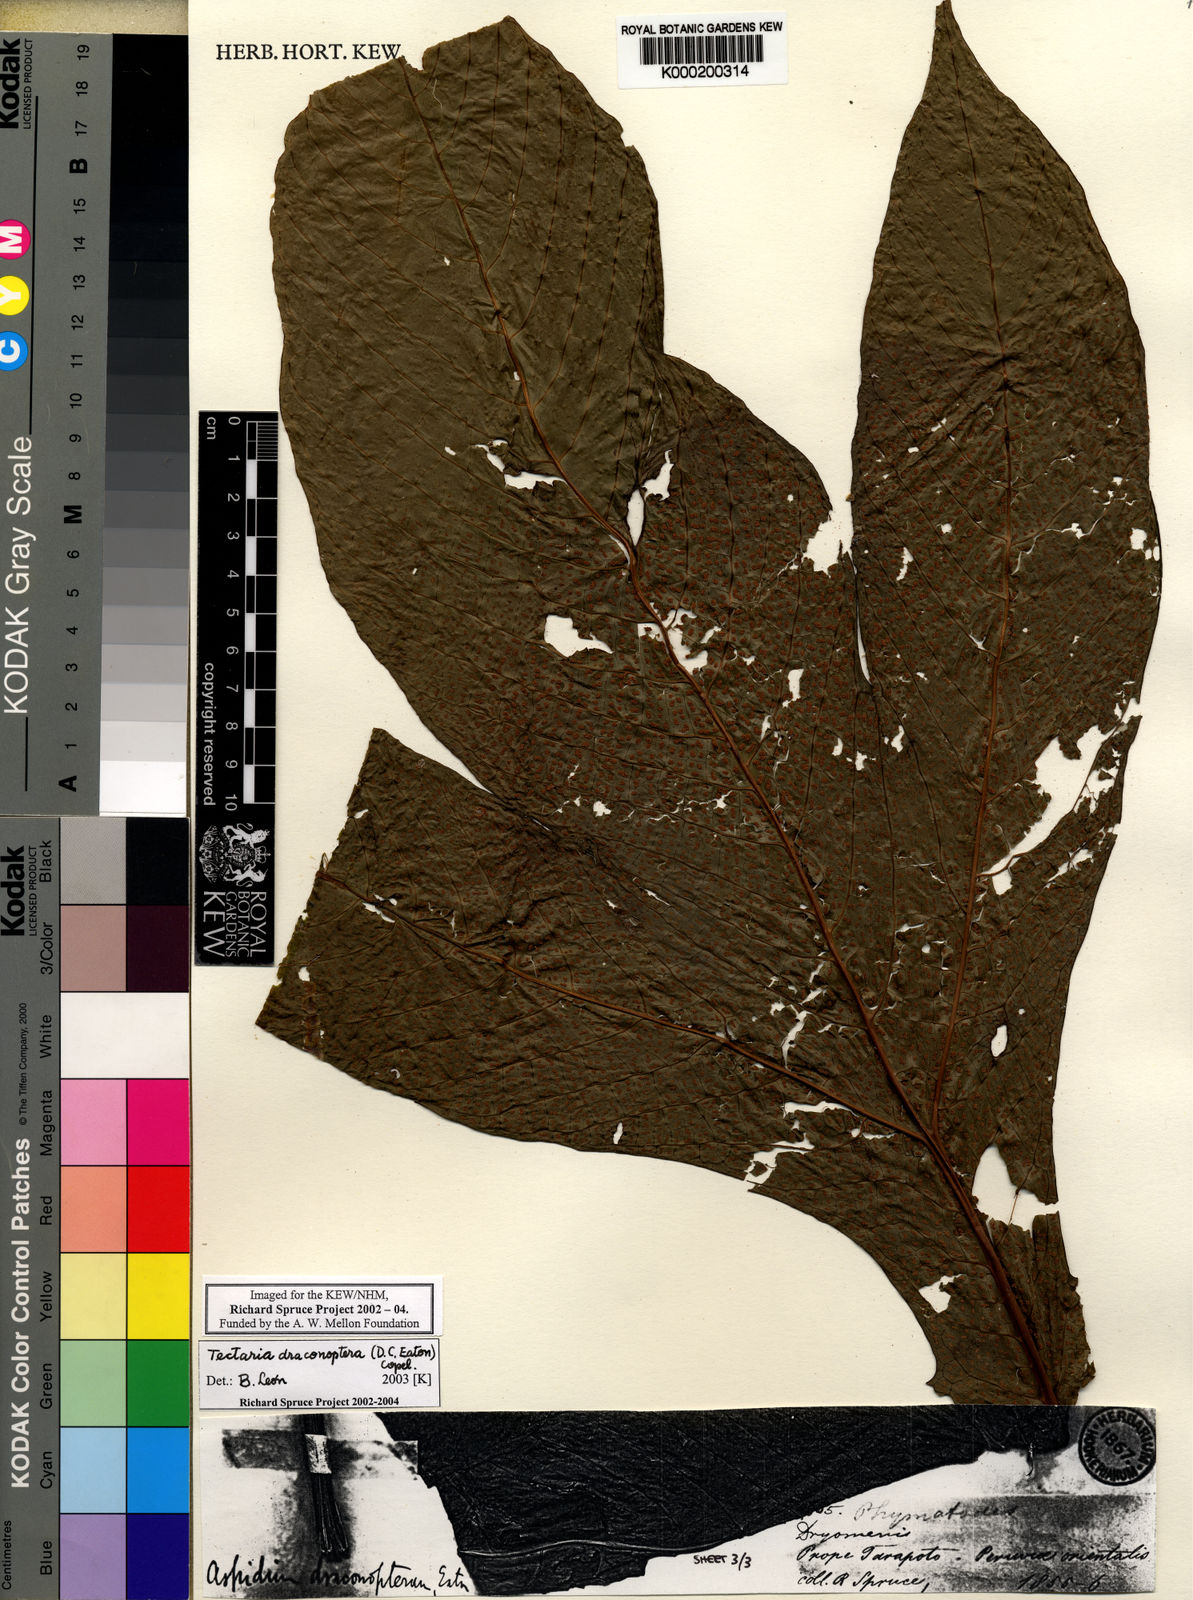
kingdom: Plantae
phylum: Tracheophyta
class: Polypodiopsida
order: Polypodiales
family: Tectariaceae
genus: Draconopteris
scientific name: Draconopteris draconoptera
